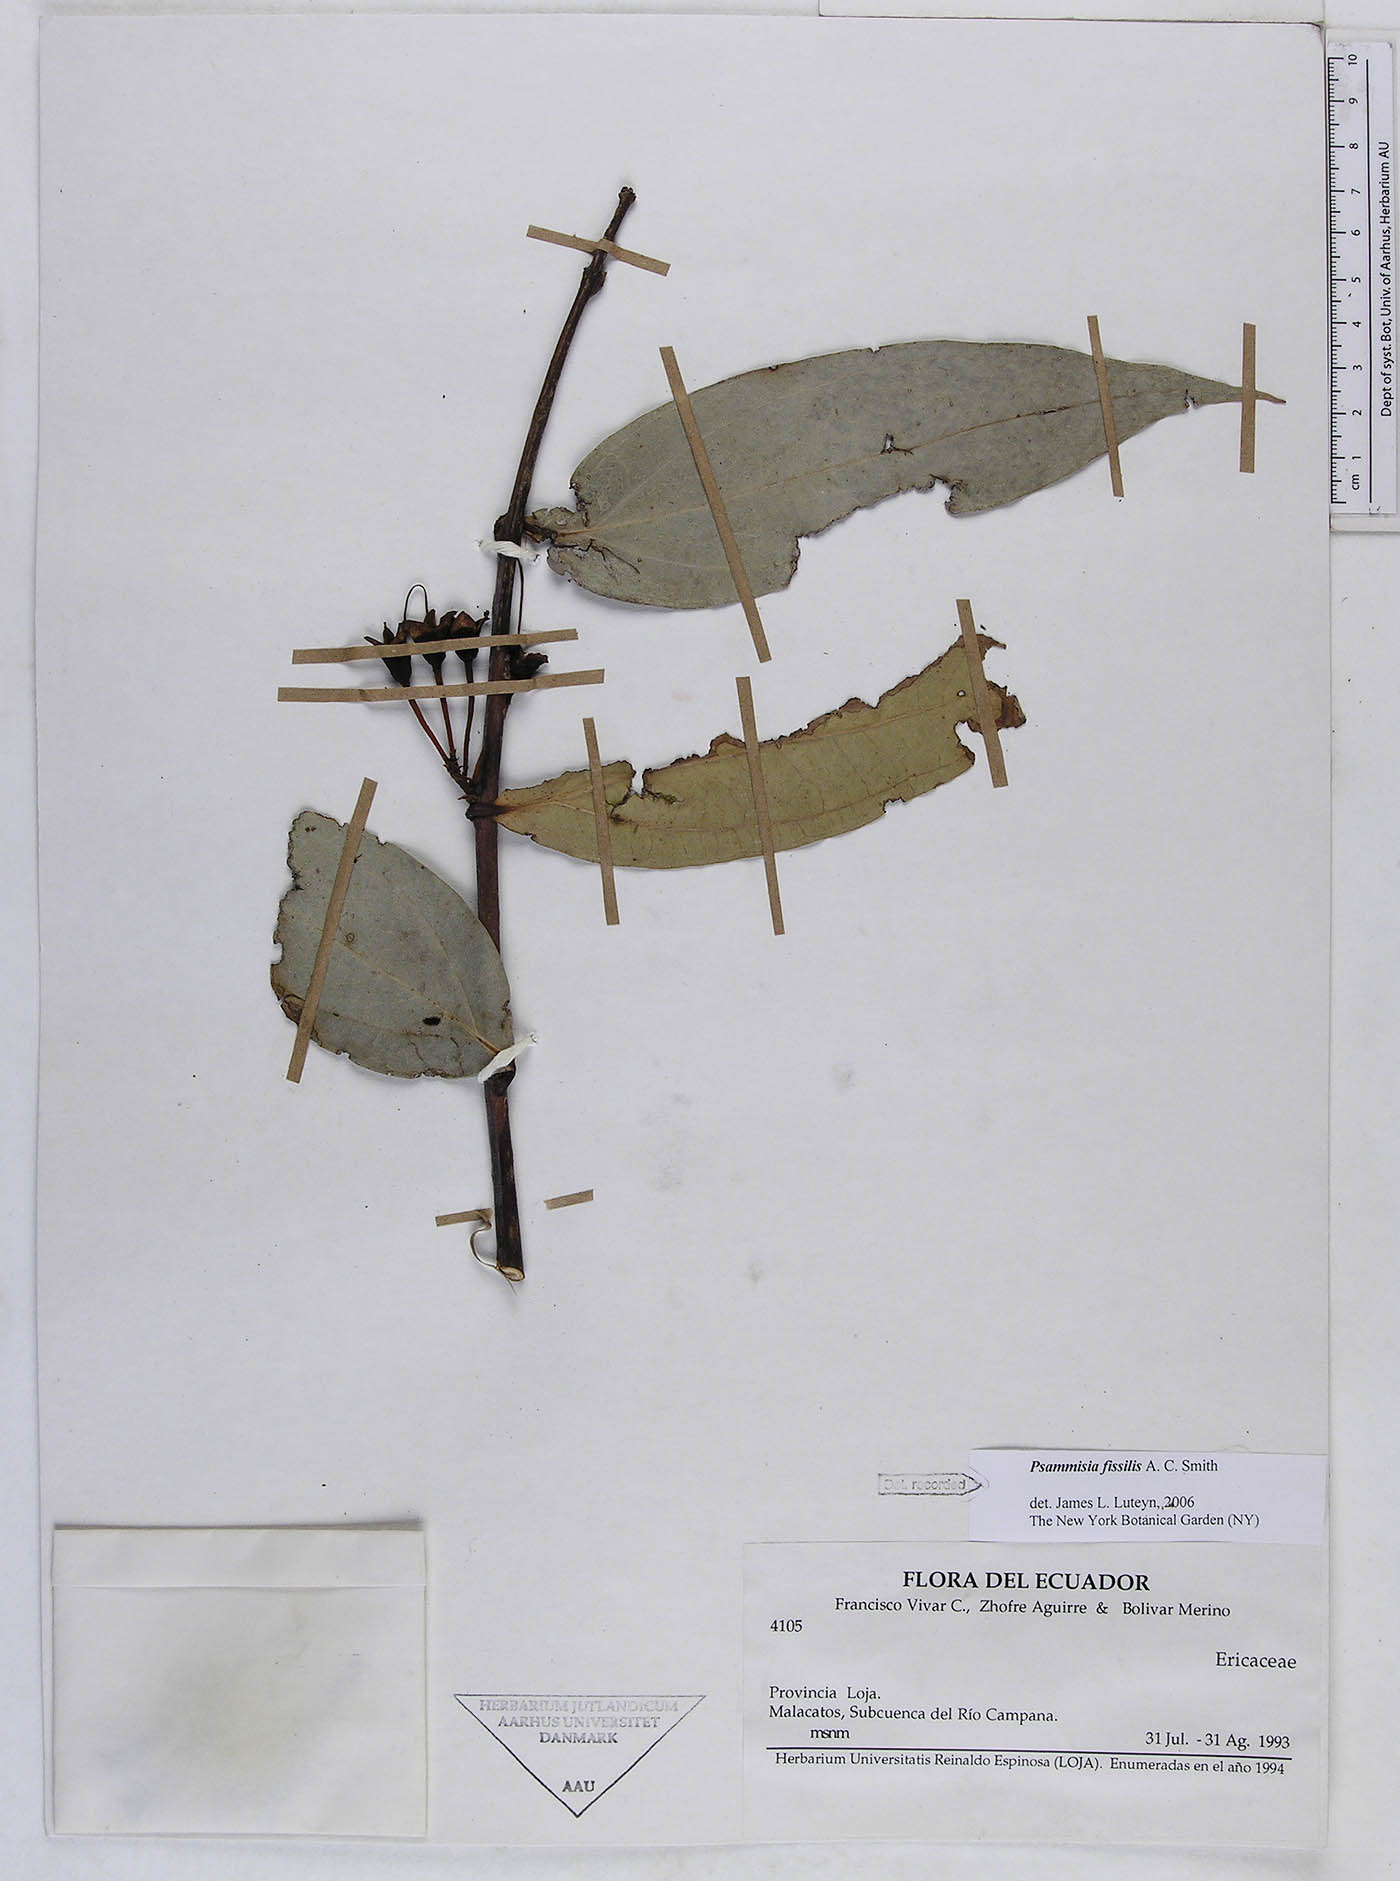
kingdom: Plantae
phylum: Tracheophyta
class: Magnoliopsida
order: Ericales
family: Ericaceae
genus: Psammisia
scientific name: Psammisia fissilis
